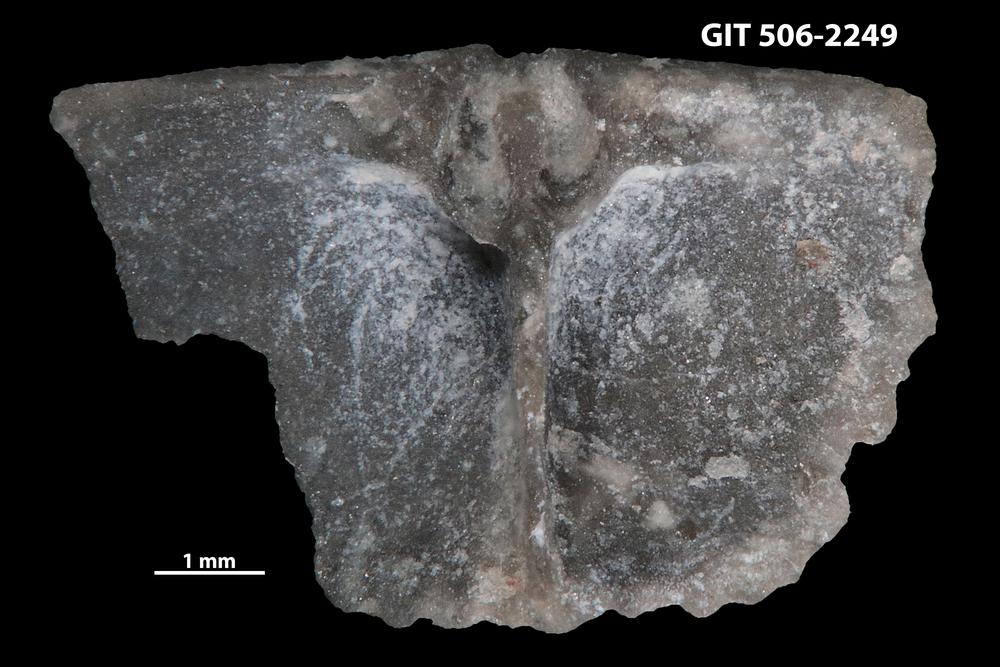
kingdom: Animalia
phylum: Brachiopoda
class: Rhynchonellata
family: Skenidiidae
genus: Skenidioides
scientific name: Skenidioides hymiri
